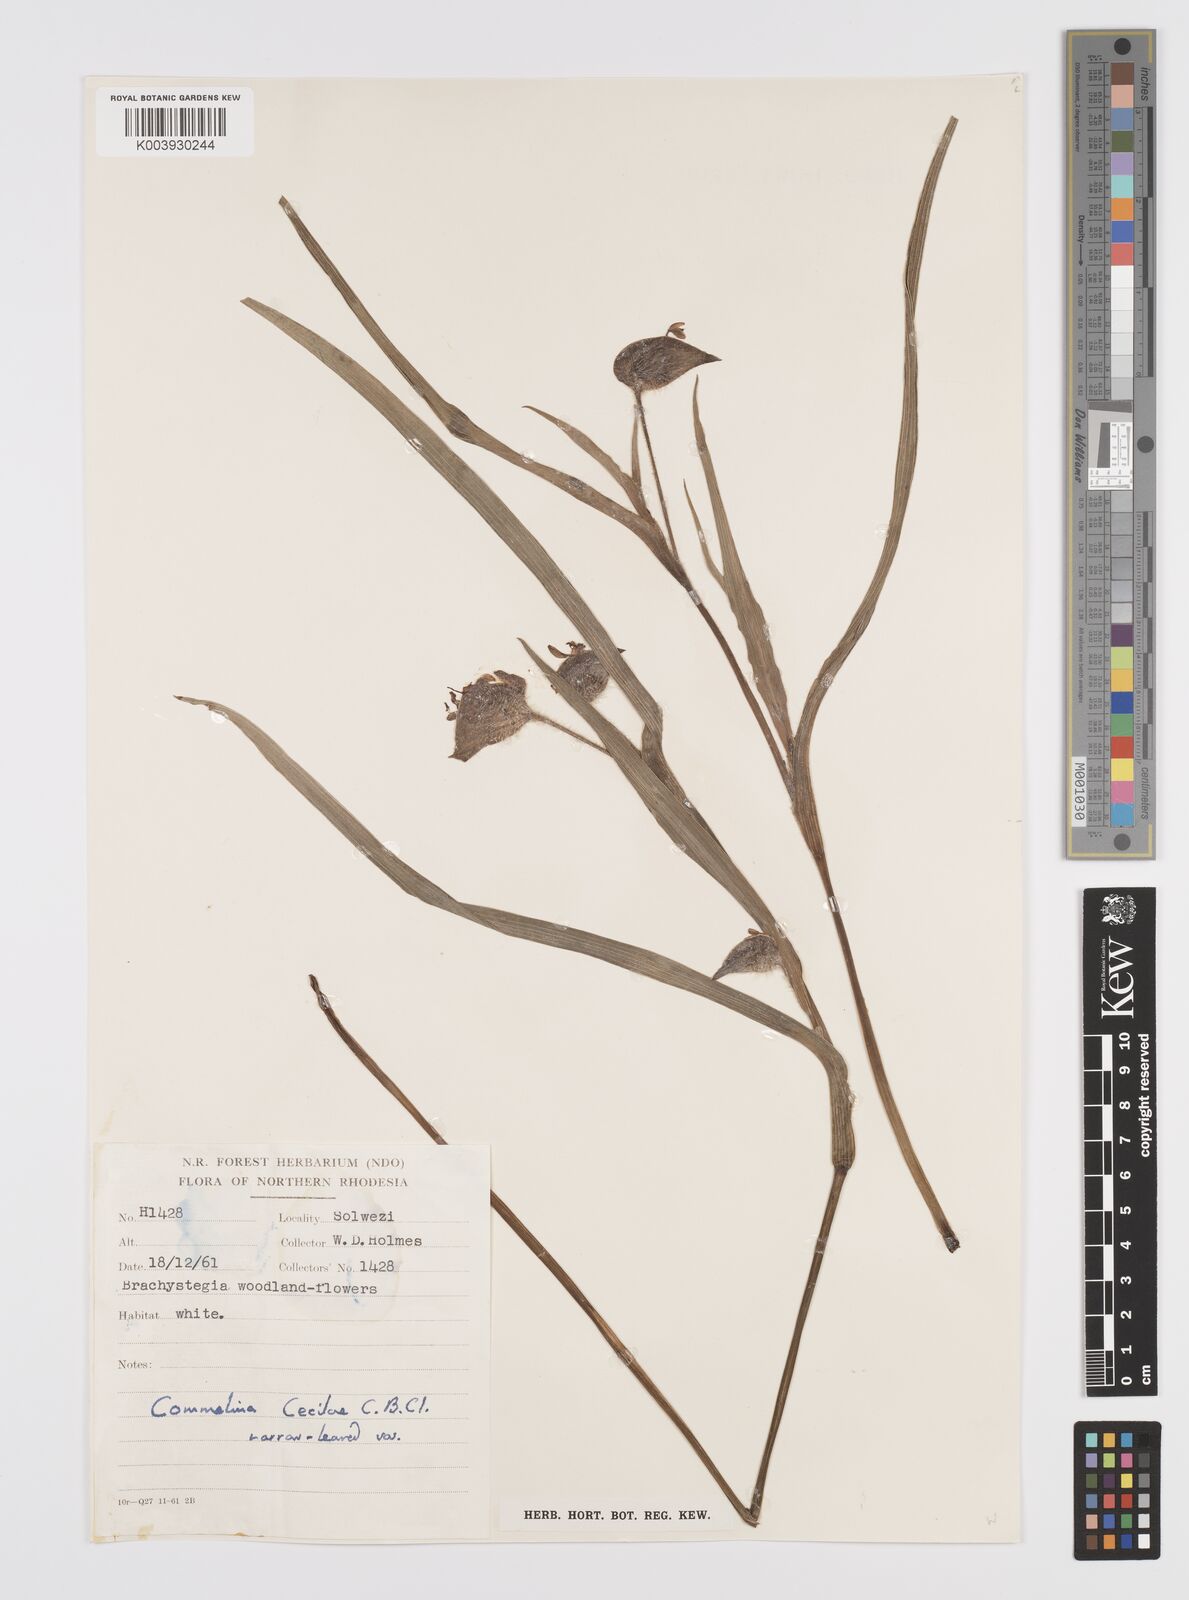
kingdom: Plantae
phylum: Tracheophyta
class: Liliopsida
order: Commelinales
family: Commelinaceae
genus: Commelina
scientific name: Commelina schweinfurthii
